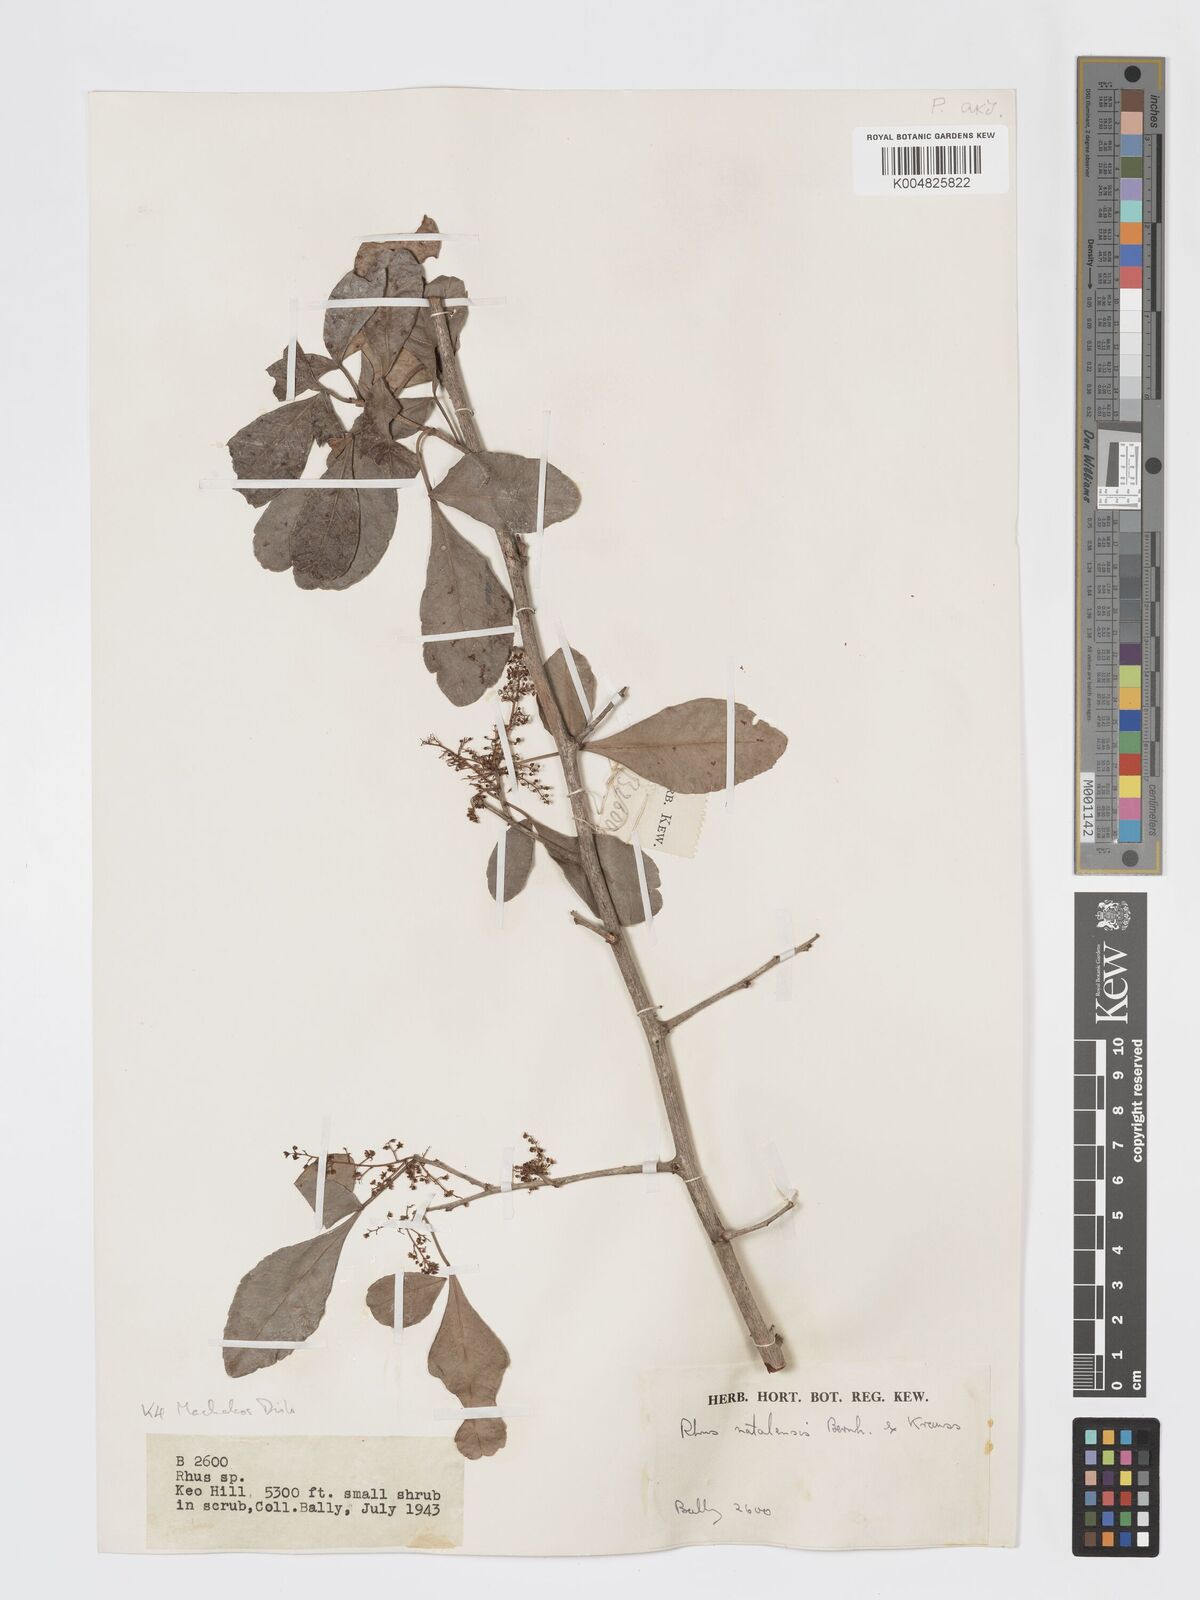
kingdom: Plantae
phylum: Tracheophyta
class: Magnoliopsida
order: Sapindales
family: Anacardiaceae
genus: Searsia
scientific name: Searsia natalensis
